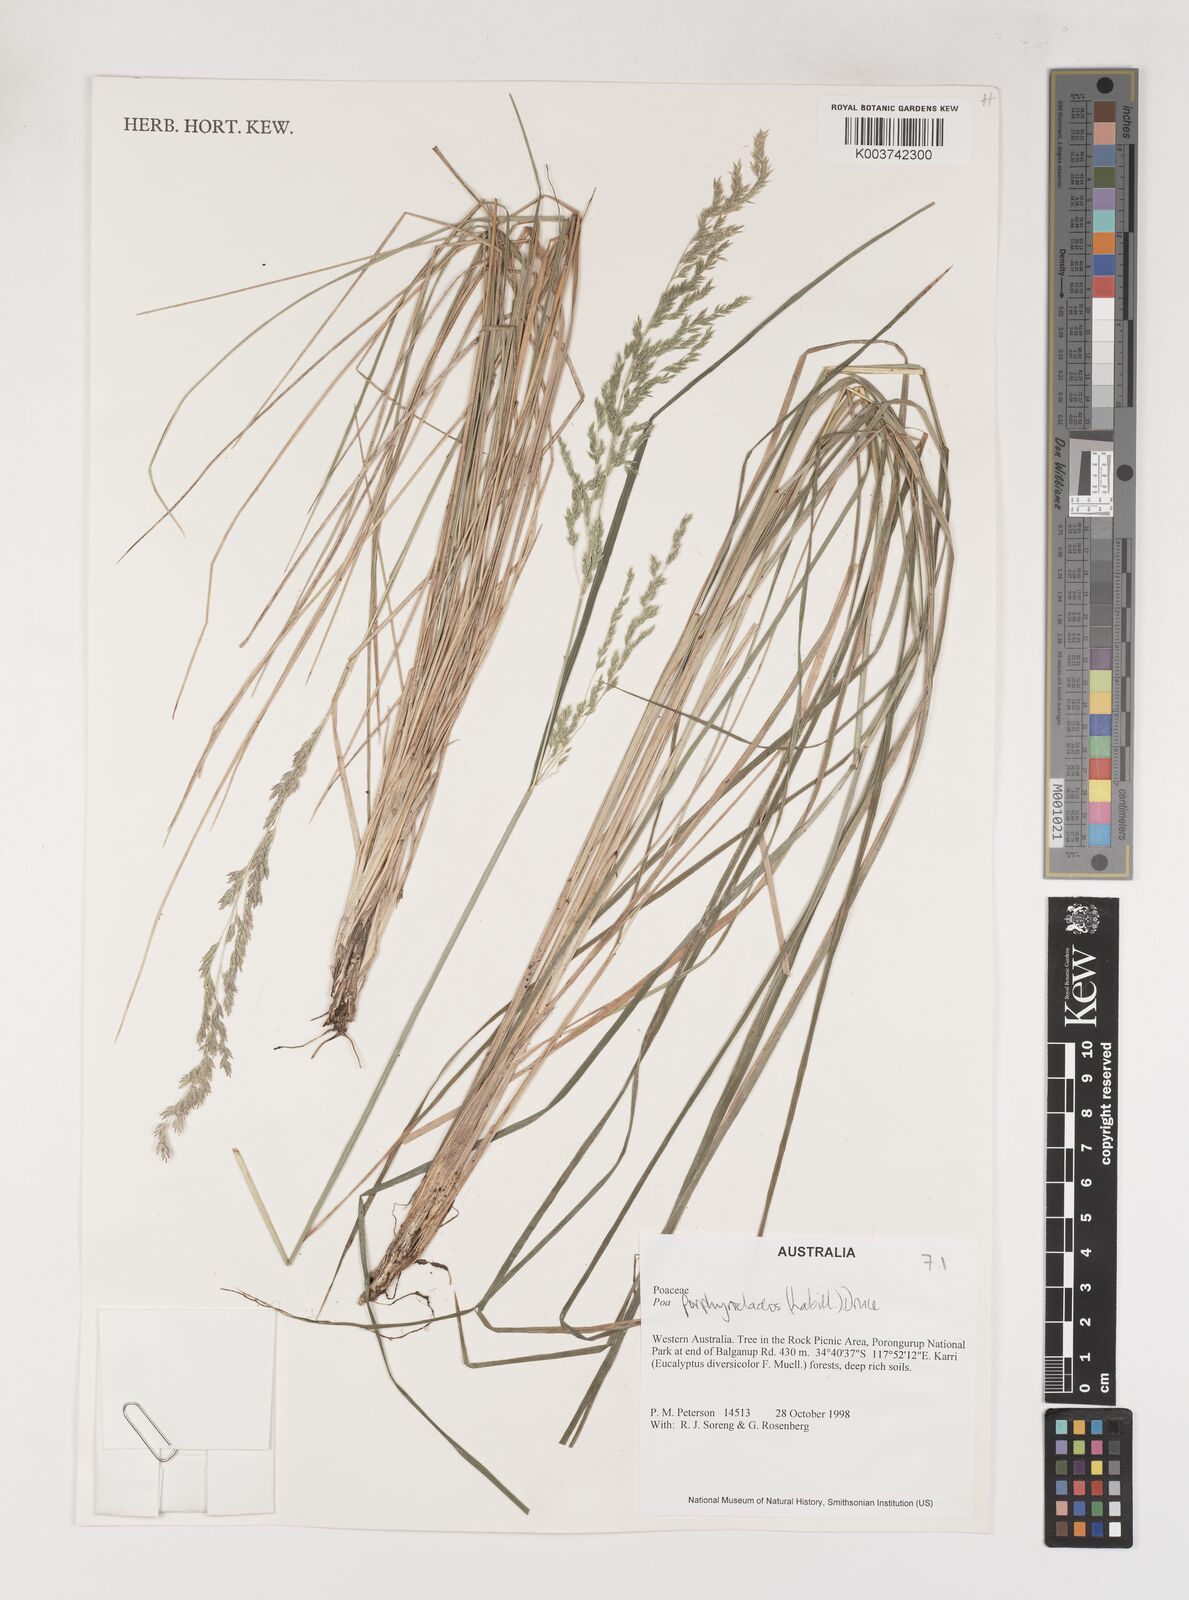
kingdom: Plantae
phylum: Tracheophyta
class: Liliopsida
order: Poales
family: Poaceae
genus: Poa
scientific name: Poa porphyroclados
